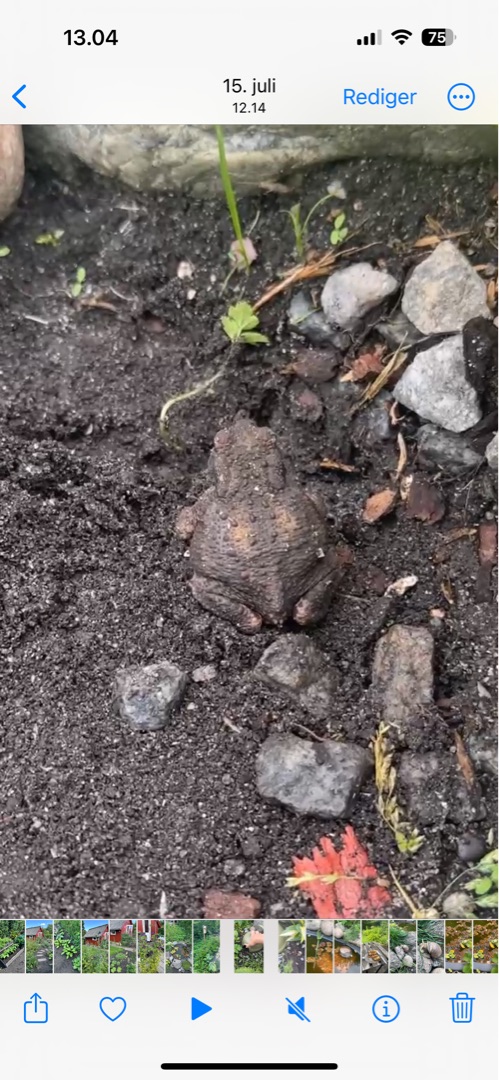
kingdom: Animalia
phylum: Chordata
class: Amphibia
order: Anura
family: Bufonidae
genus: Bufo
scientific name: Bufo bufo
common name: Skrubtudse
